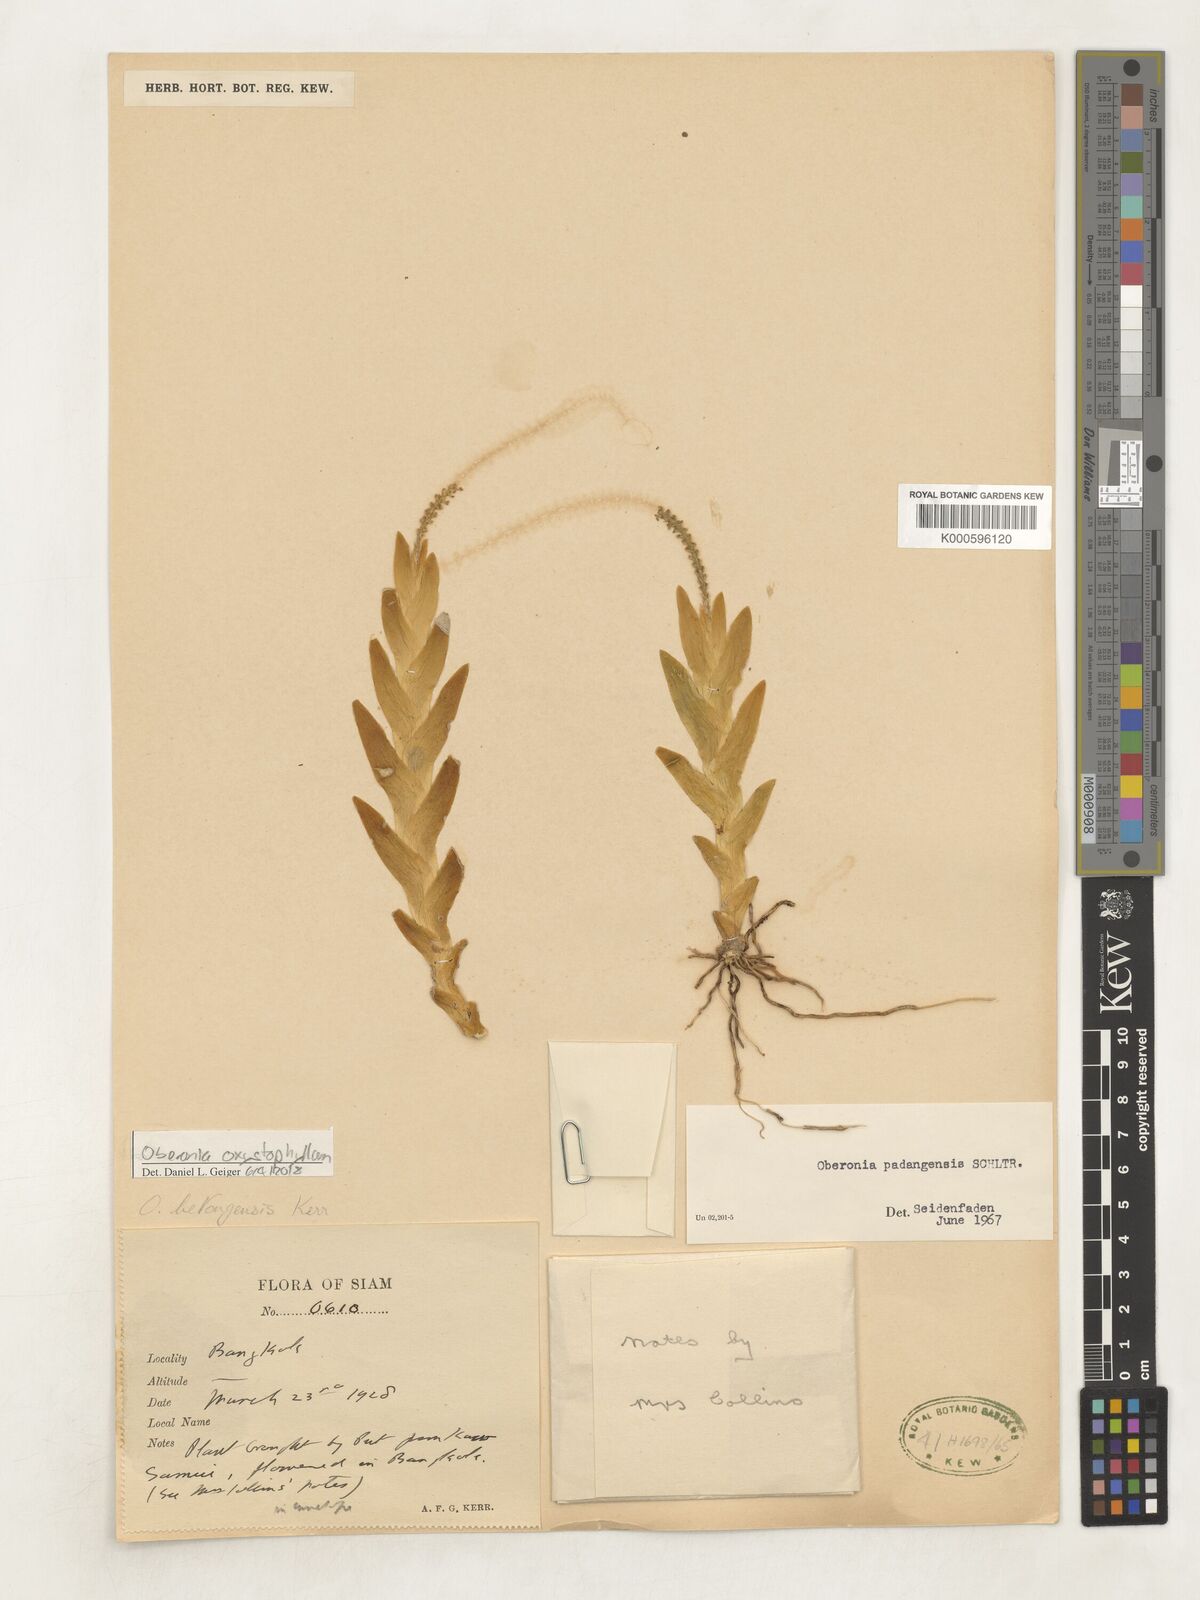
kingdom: Plantae
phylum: Tracheophyta
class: Liliopsida
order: Asparagales
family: Orchidaceae
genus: Oberonia
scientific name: Oberonia equitans
